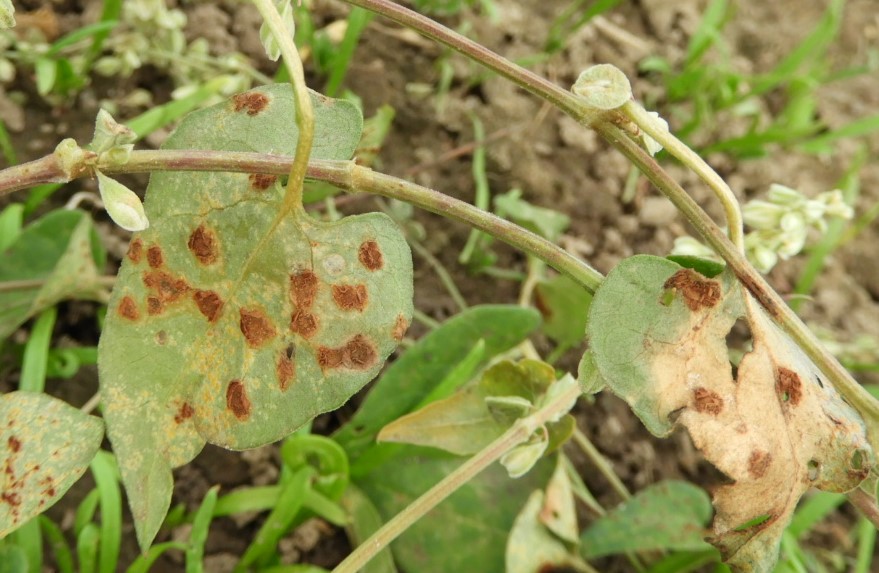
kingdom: Fungi
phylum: Basidiomycota
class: Pucciniomycetes
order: Pucciniales
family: Pucciniaceae
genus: Puccinia
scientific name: Puccinia convolvuli
